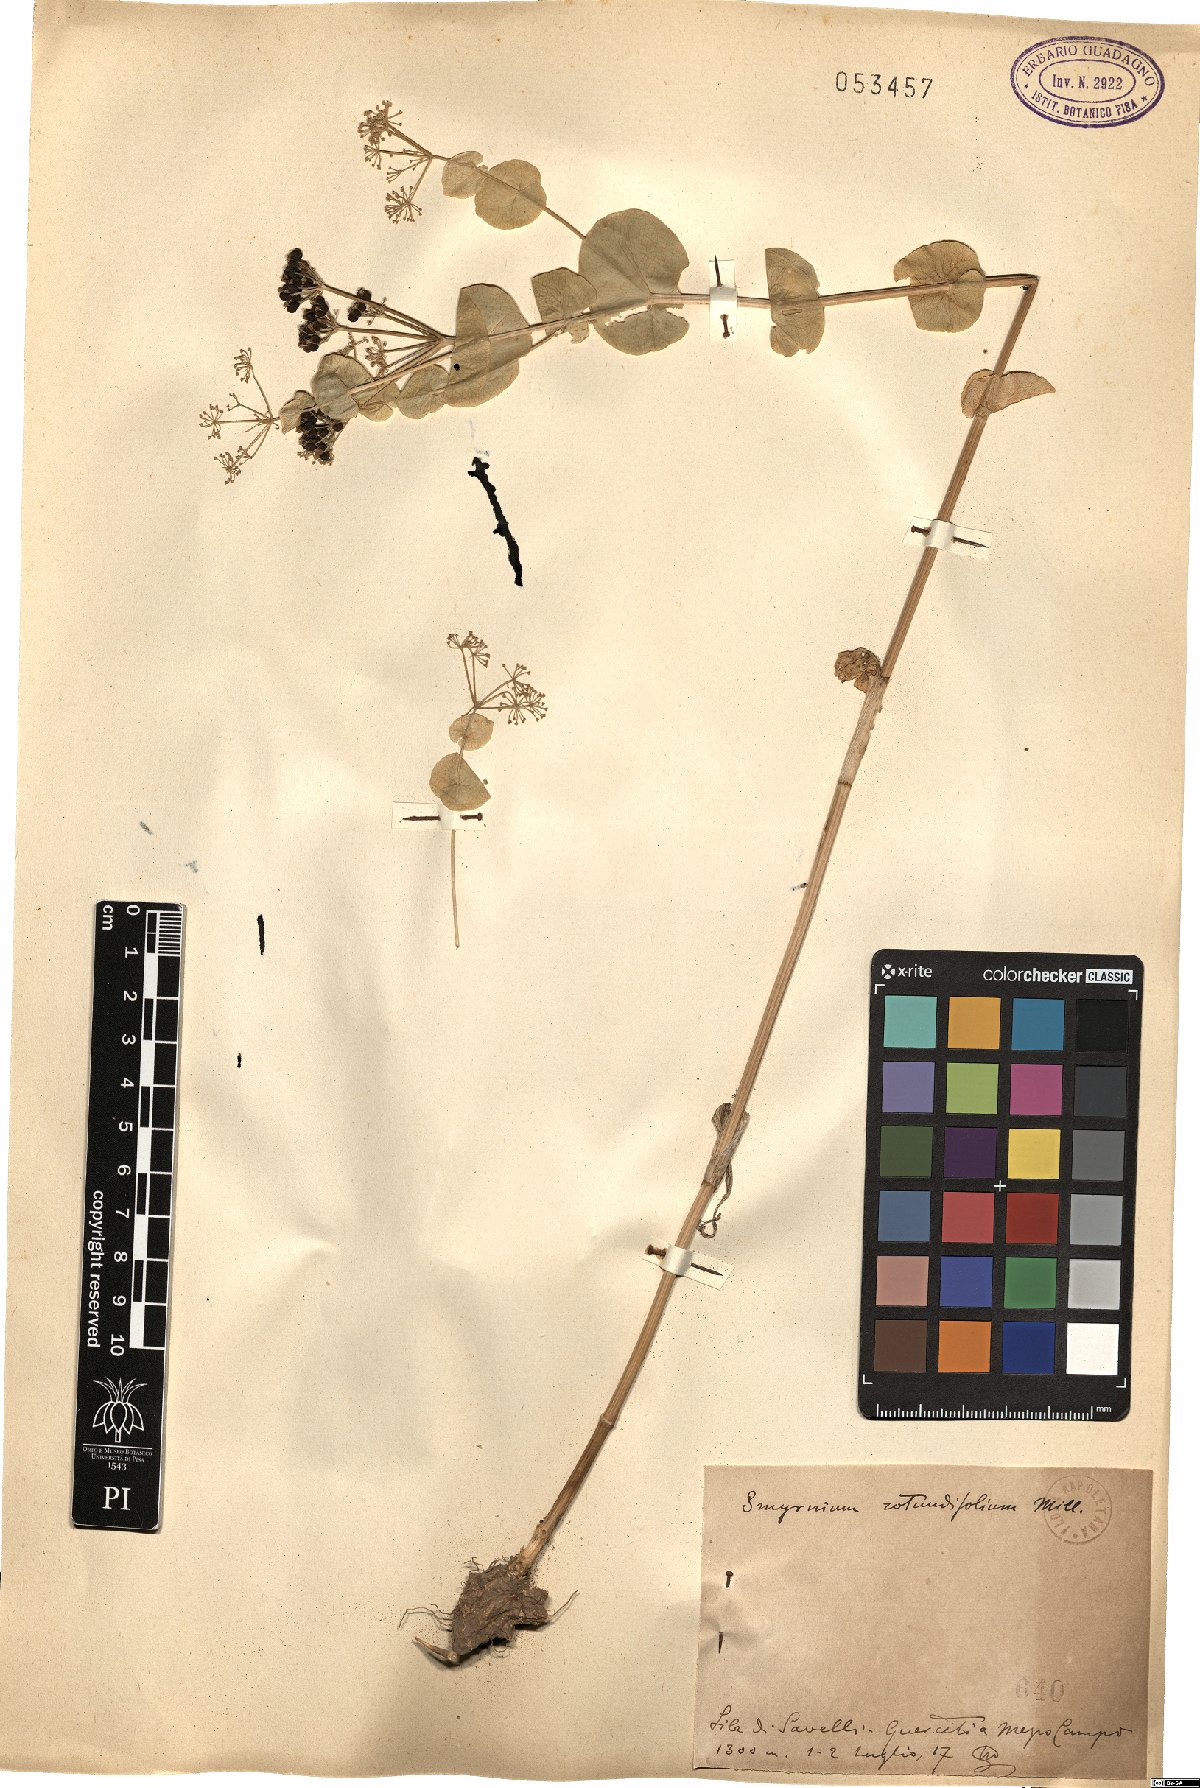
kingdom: Plantae
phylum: Tracheophyta
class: Magnoliopsida
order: Apiales
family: Apiaceae
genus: Smyrnium
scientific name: Smyrnium perfoliatum
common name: Perfoliate alexanders
